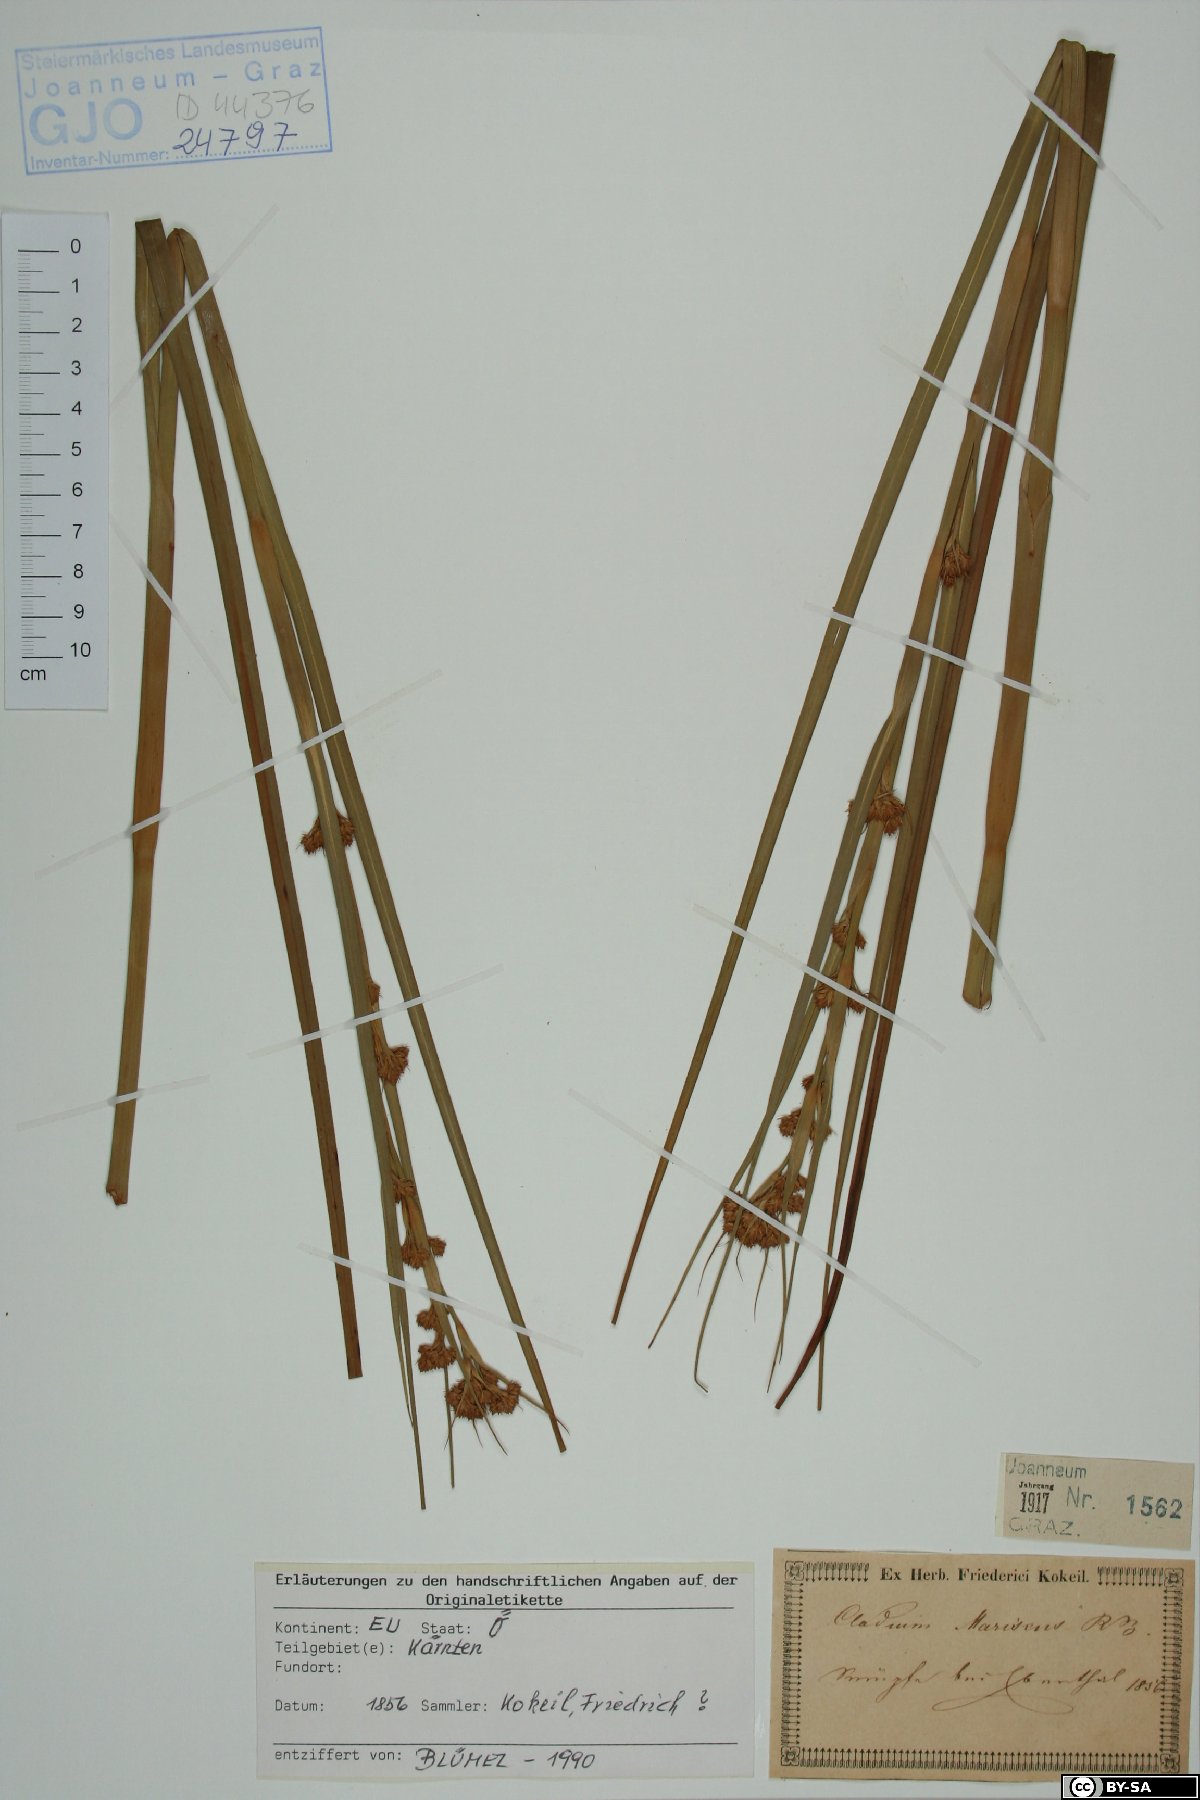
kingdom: Plantae
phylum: Tracheophyta
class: Liliopsida
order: Poales
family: Cyperaceae
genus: Cladium
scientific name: Cladium mariscus
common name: Great fen-sedge
